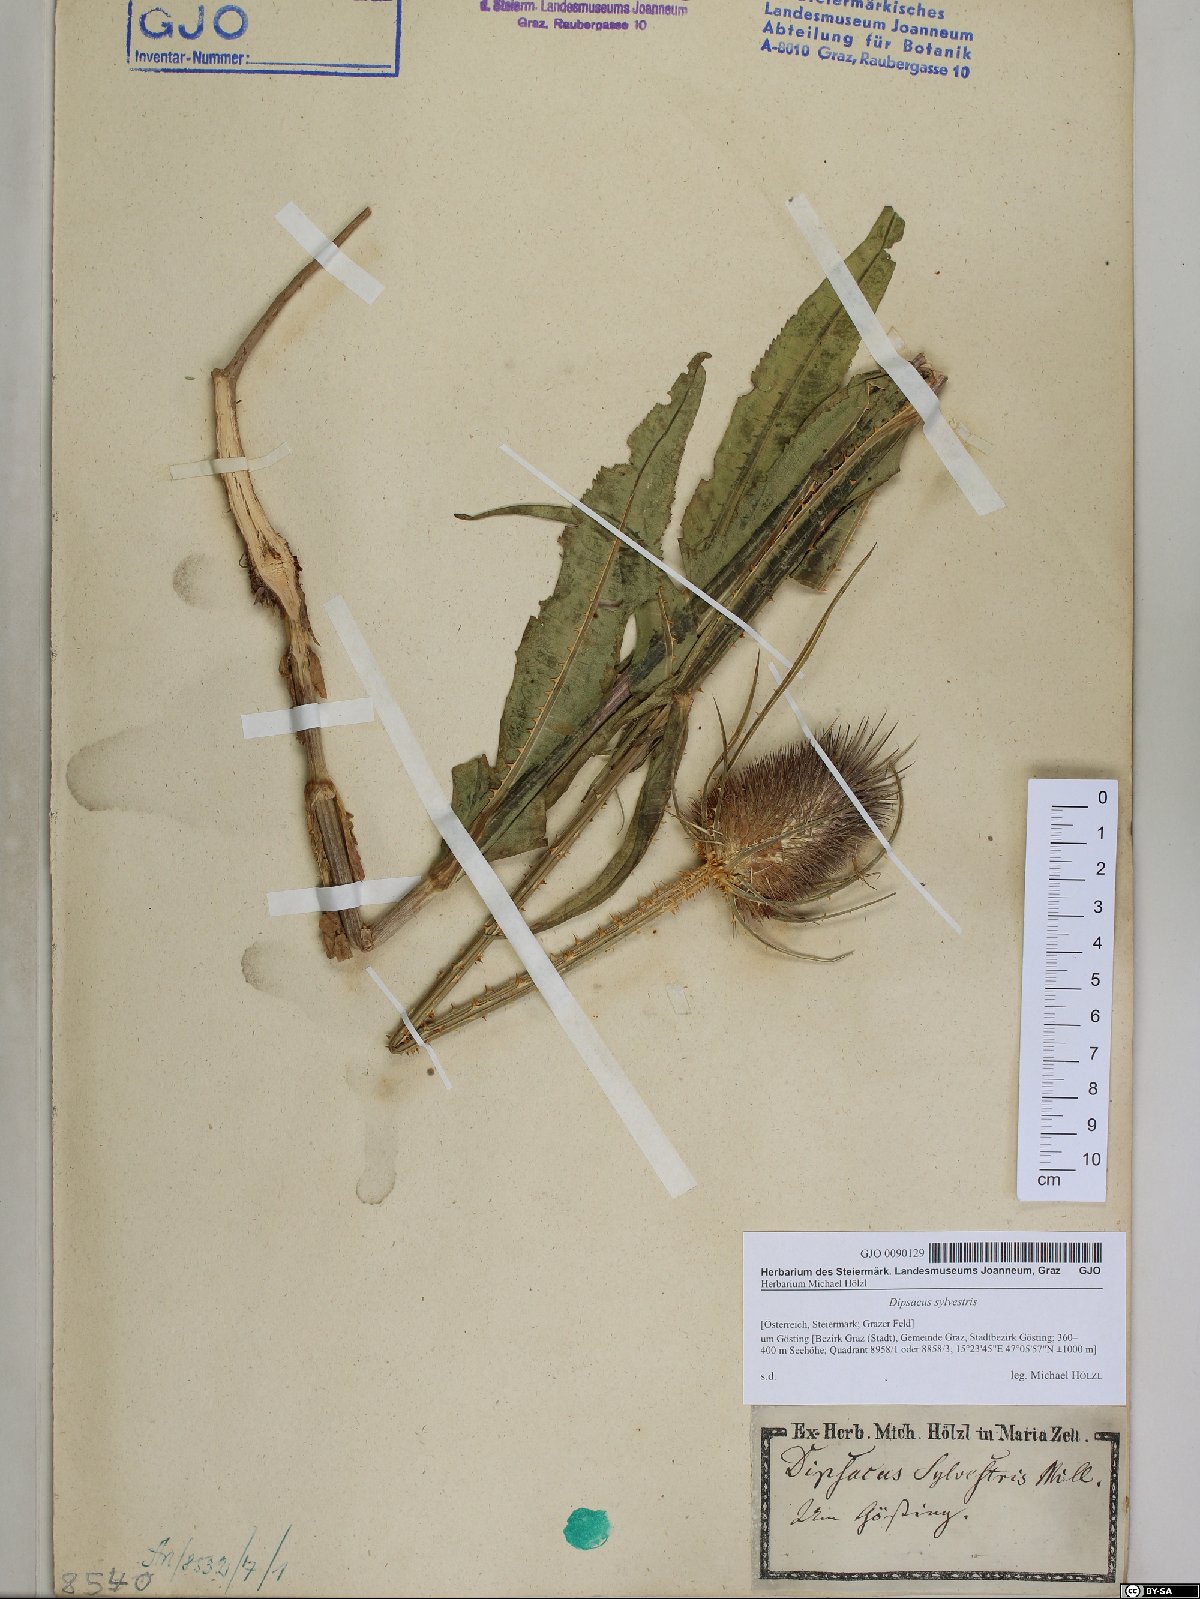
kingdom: Plantae
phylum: Tracheophyta
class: Magnoliopsida
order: Dipsacales
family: Caprifoliaceae
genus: Dipsacus
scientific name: Dipsacus fullonum
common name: Teasel
